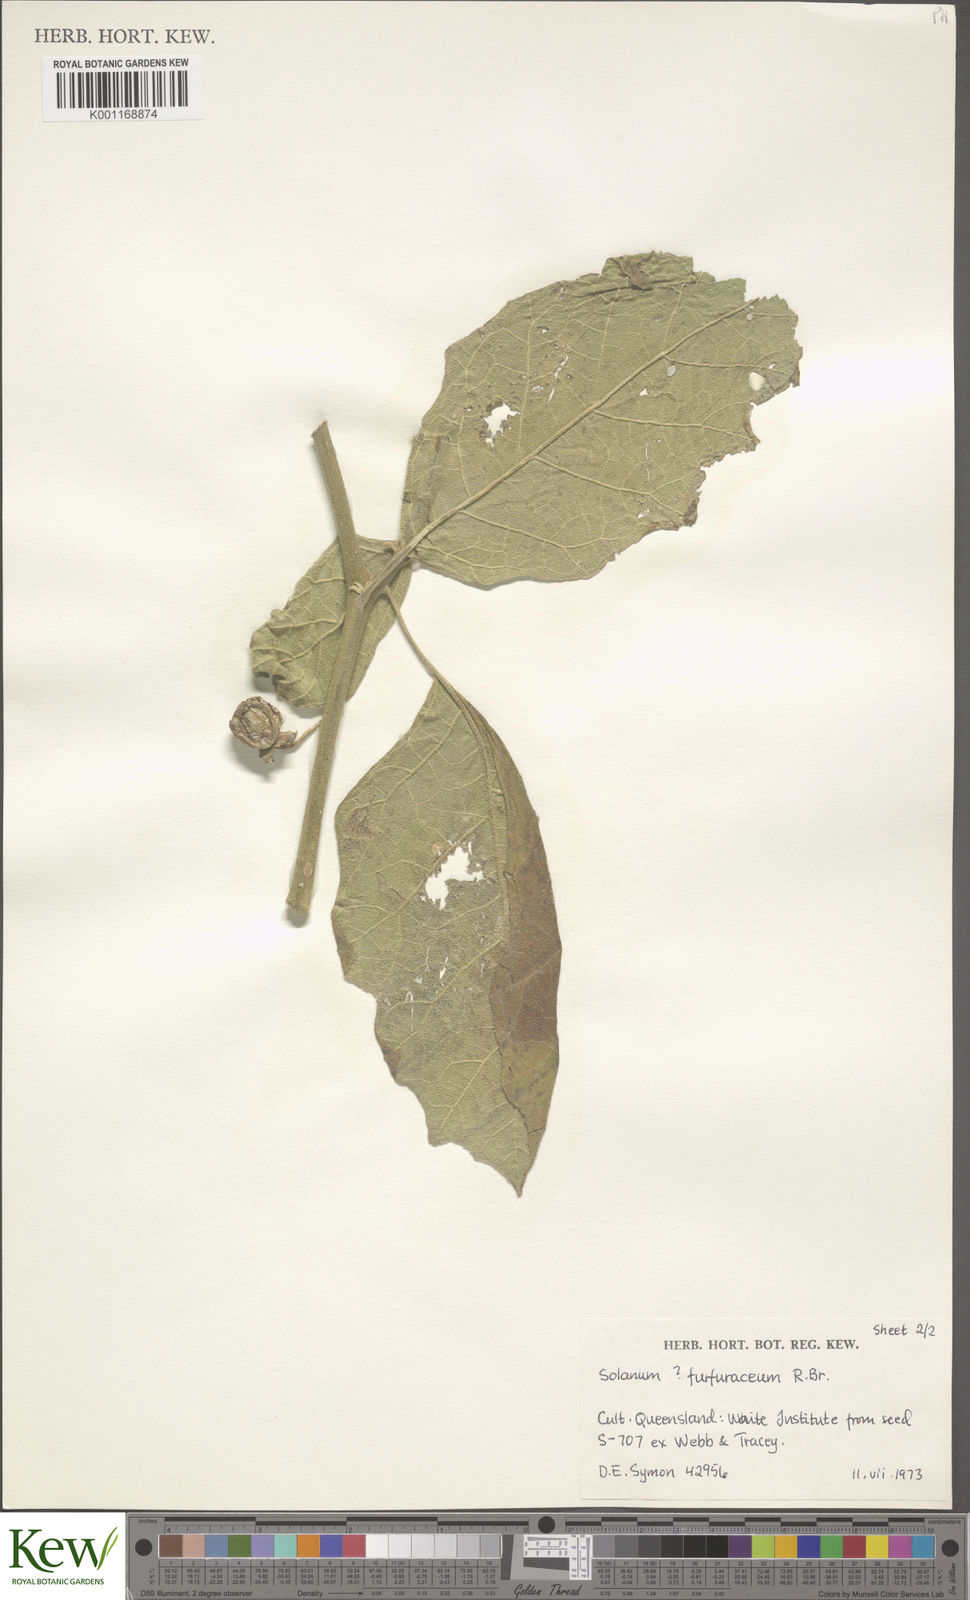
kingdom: Plantae
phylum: Tracheophyta
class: Magnoliopsida
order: Solanales
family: Solanaceae
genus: Solanum
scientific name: Solanum furfuraceum
